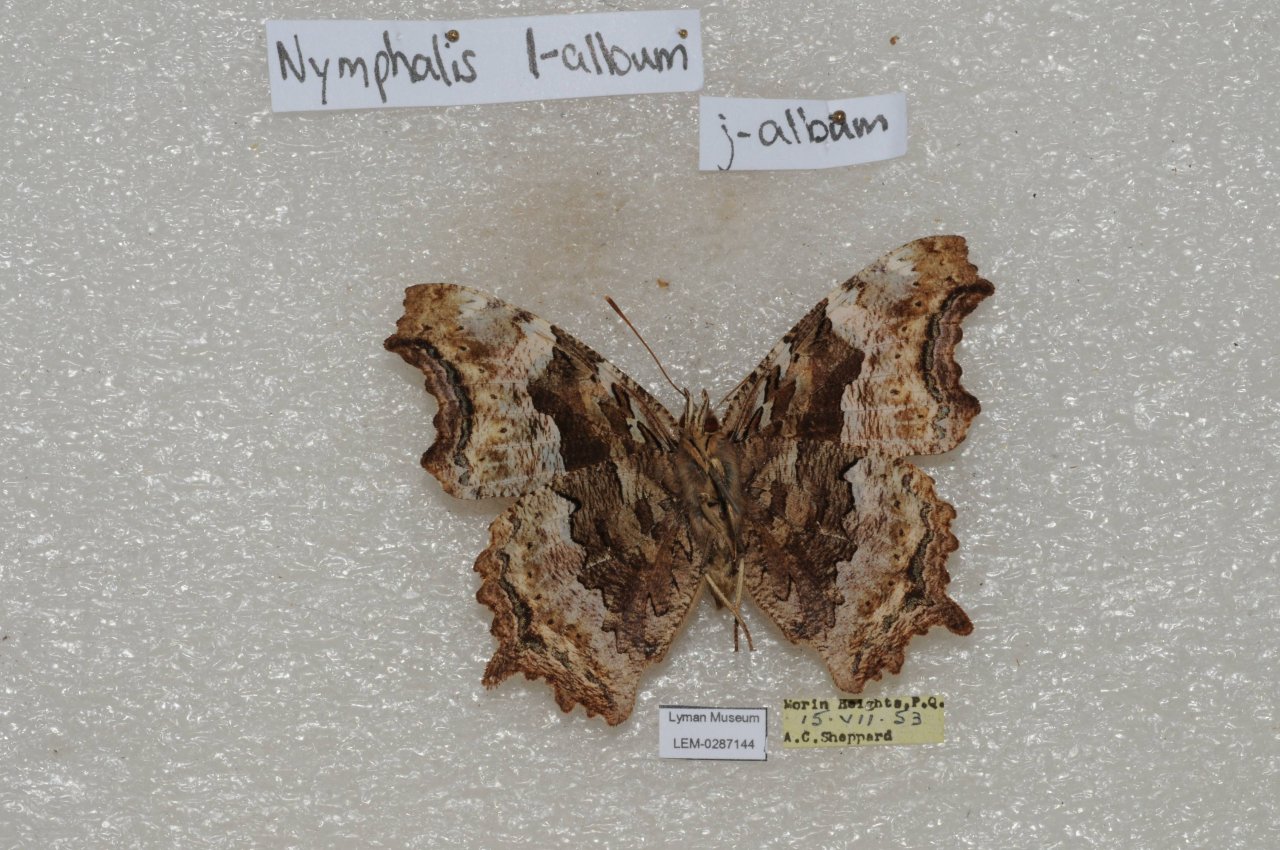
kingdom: Animalia
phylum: Arthropoda
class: Insecta
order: Lepidoptera
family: Nymphalidae
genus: Polygonia
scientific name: Polygonia vaualbum
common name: Compton Tortoiseshell
